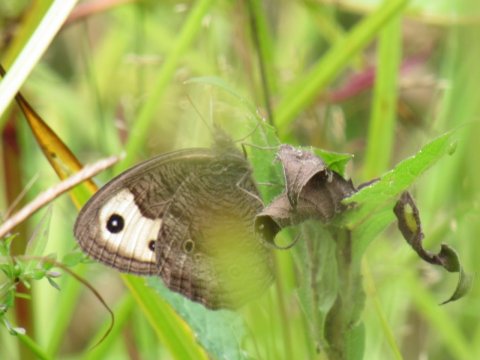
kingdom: Animalia
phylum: Arthropoda
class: Insecta
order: Lepidoptera
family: Nymphalidae
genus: Cercyonis
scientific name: Cercyonis pegala
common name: Common Wood-Nymph
